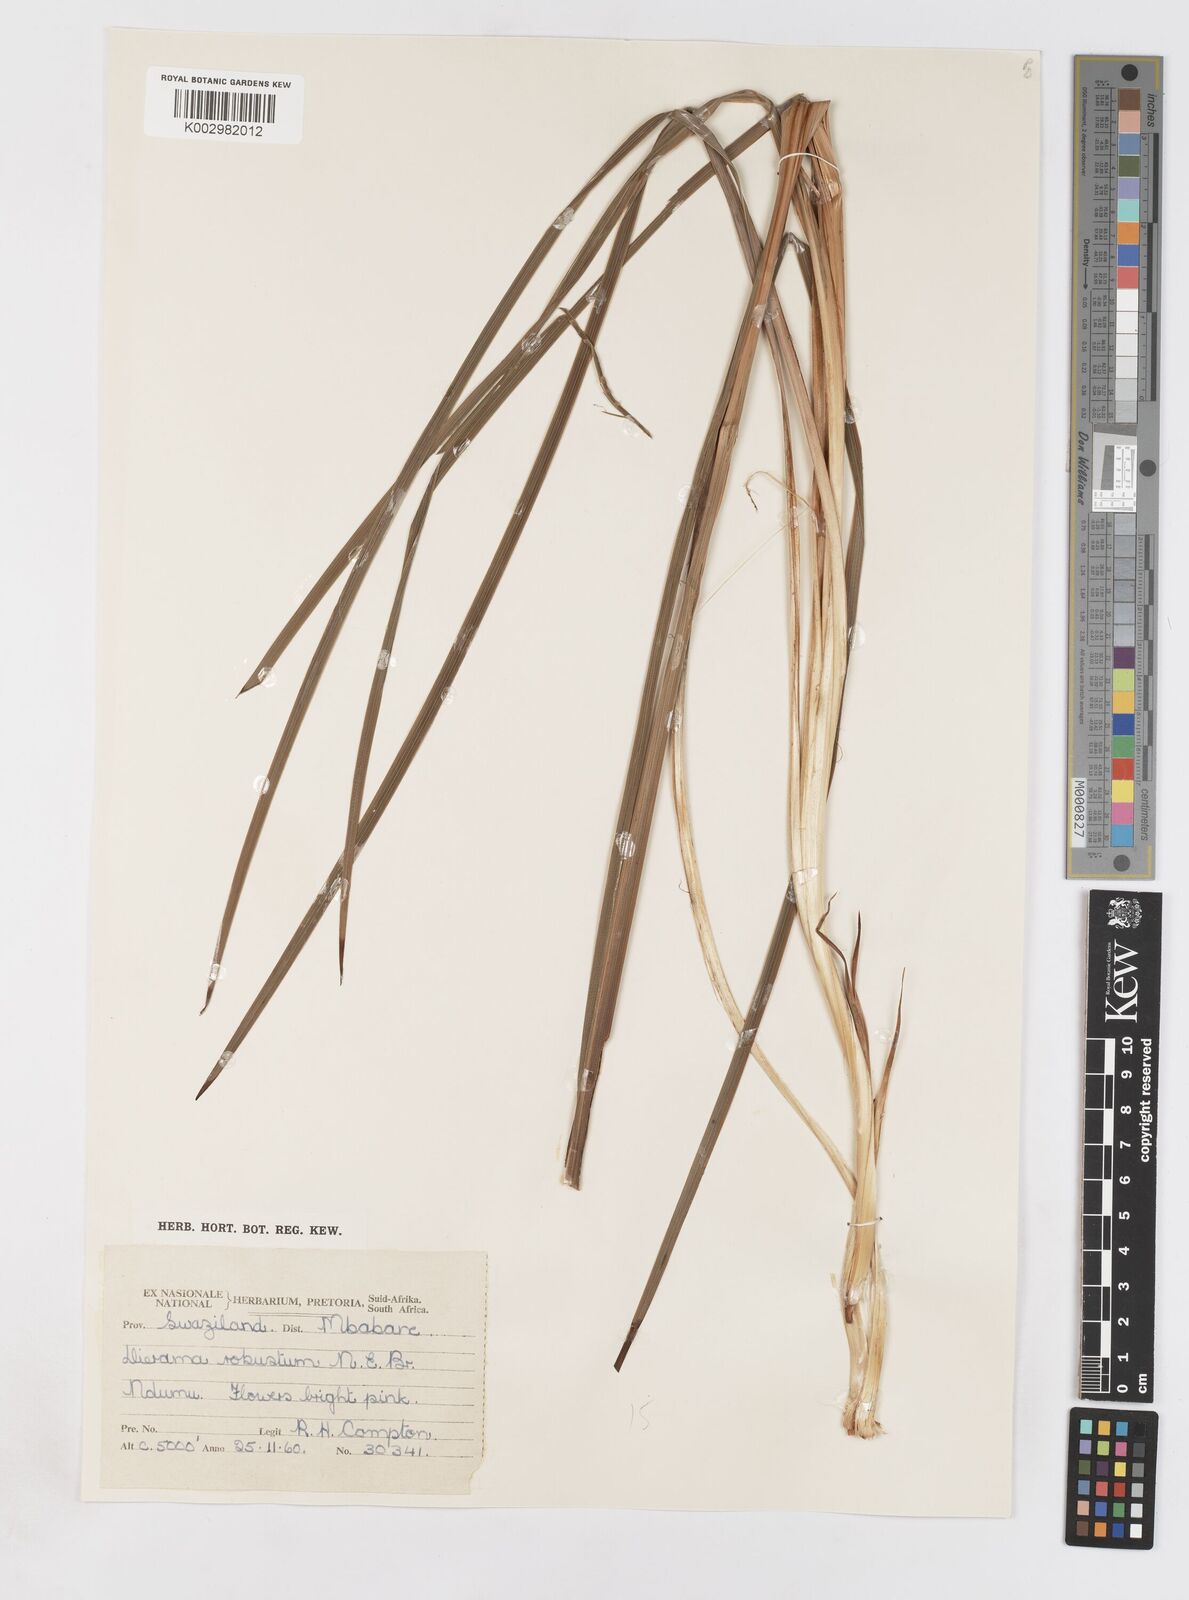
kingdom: Plantae
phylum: Tracheophyta
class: Liliopsida
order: Asparagales
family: Iridaceae
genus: Dierama
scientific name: Dierama
